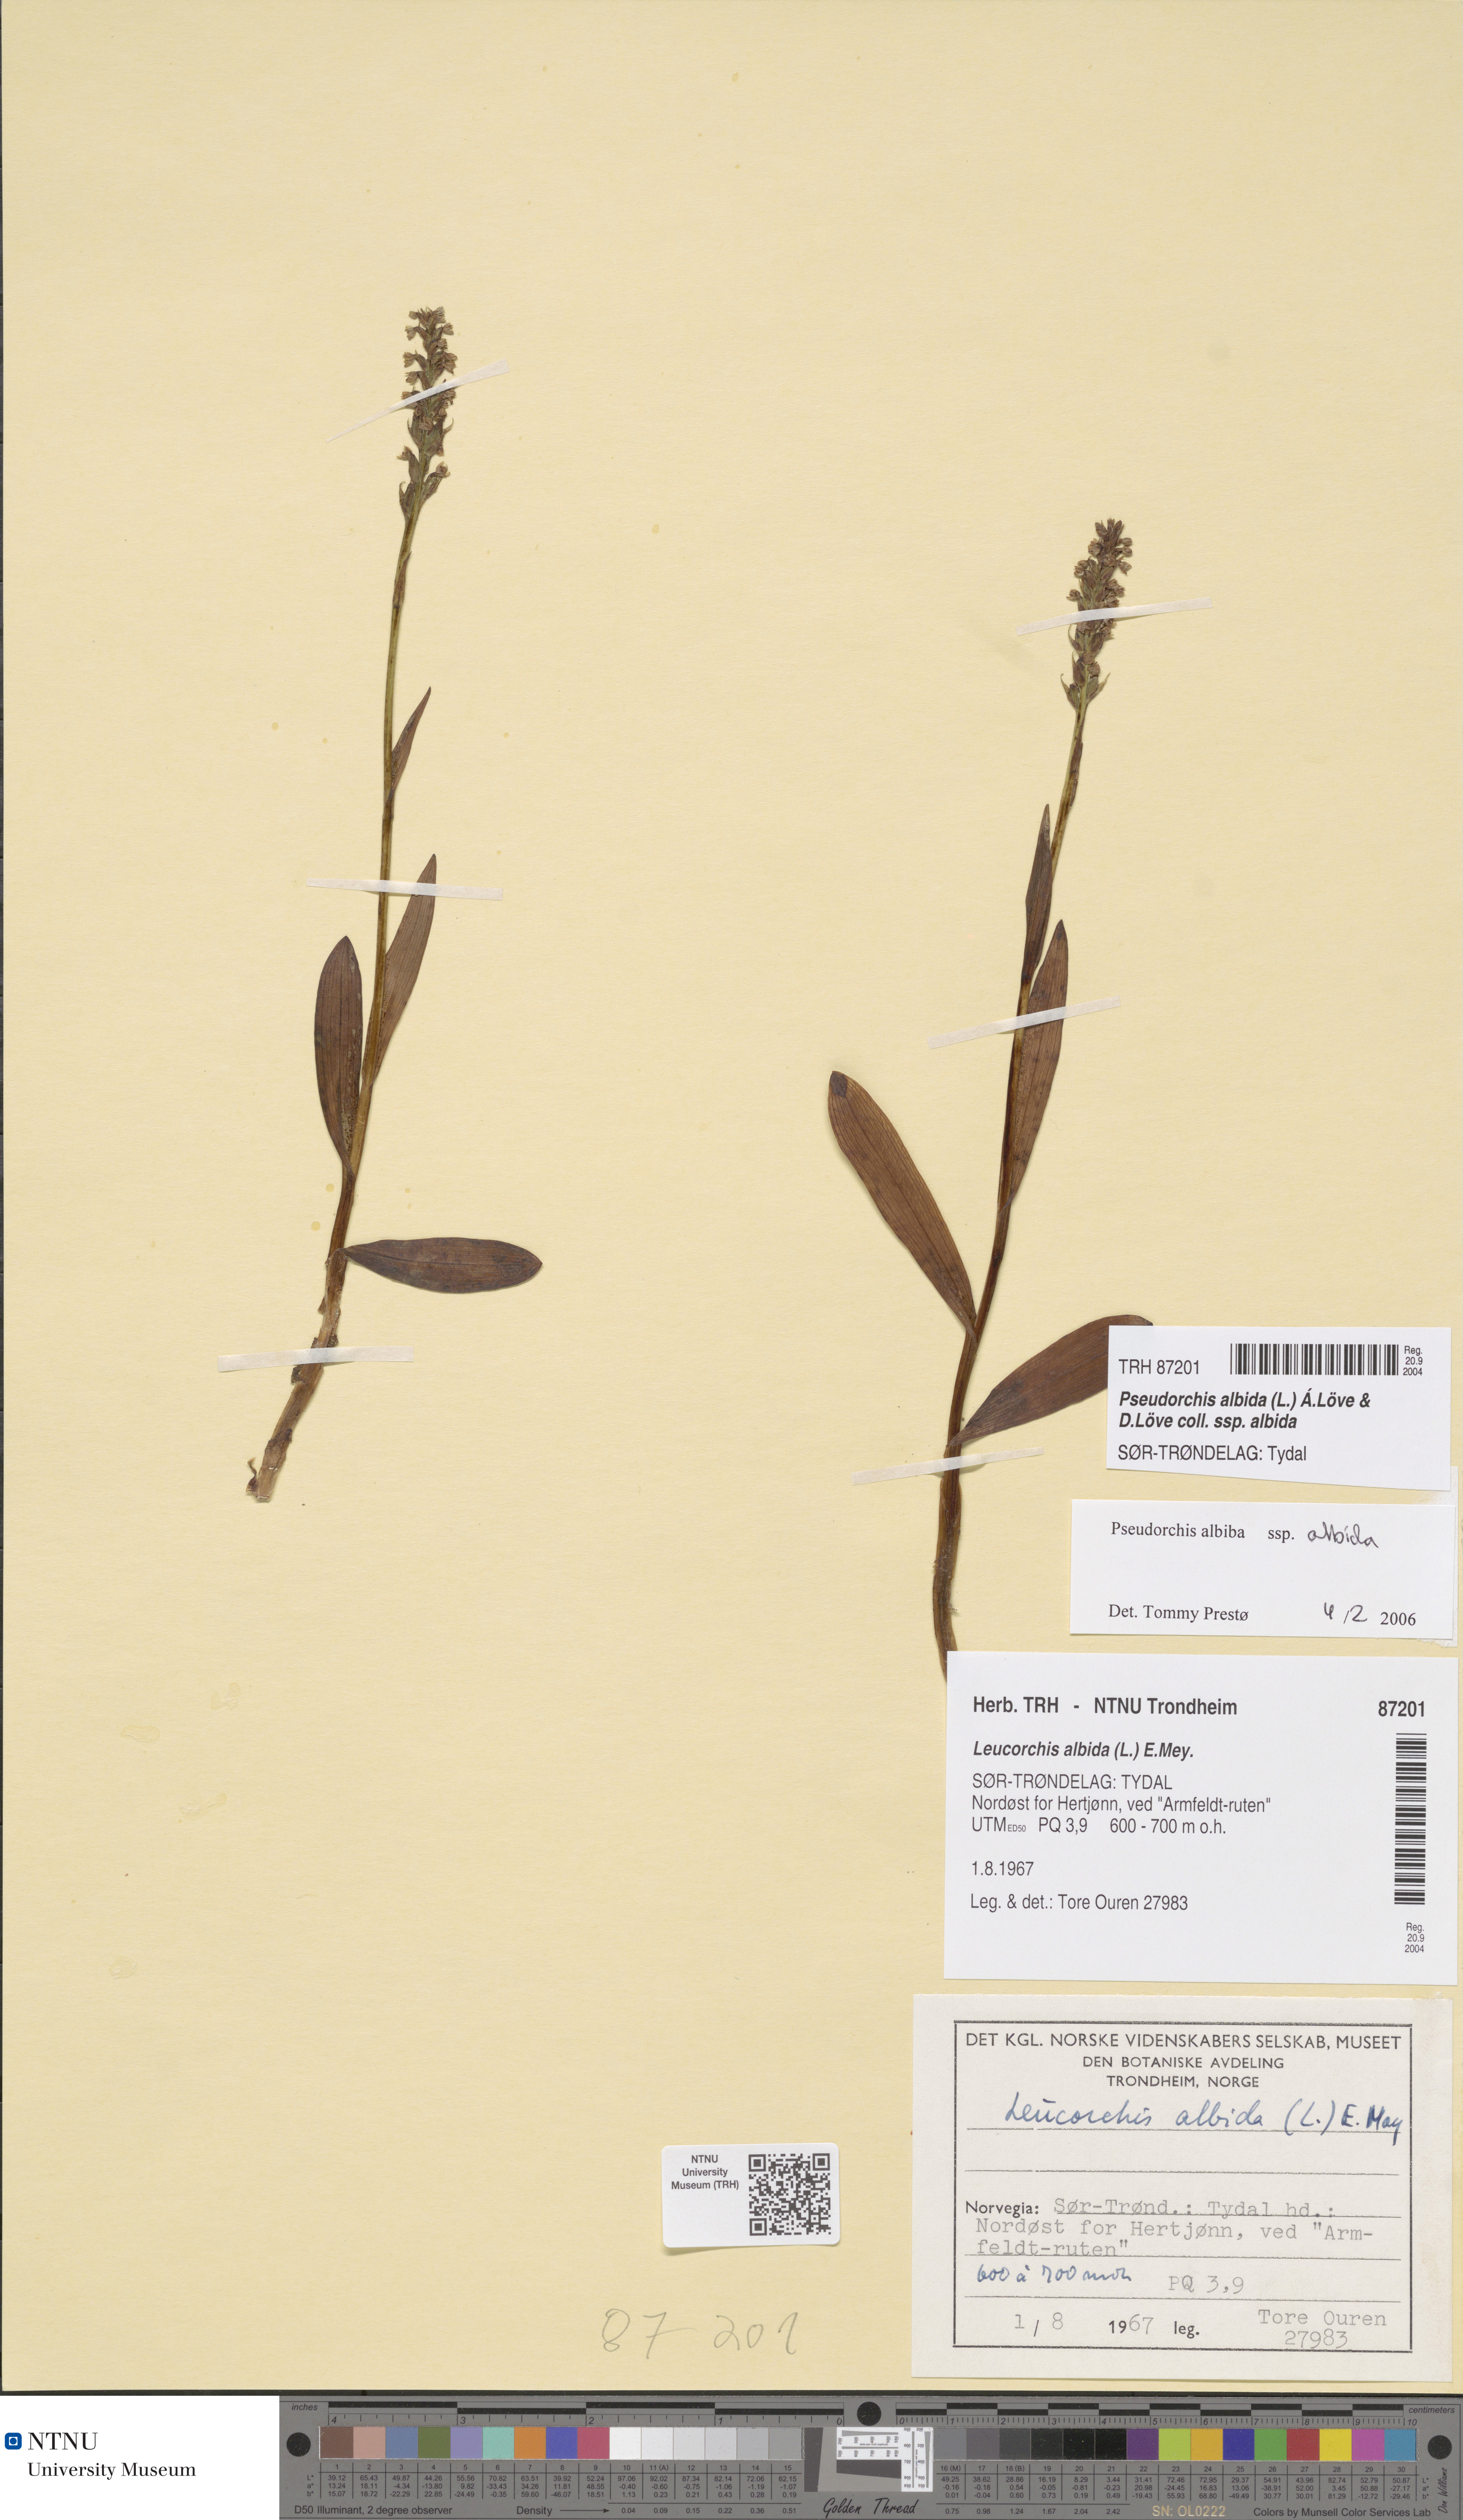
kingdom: Plantae
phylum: Tracheophyta
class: Liliopsida
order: Asparagales
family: Orchidaceae
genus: Pseudorchis
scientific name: Pseudorchis albida
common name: Small-white orchid
